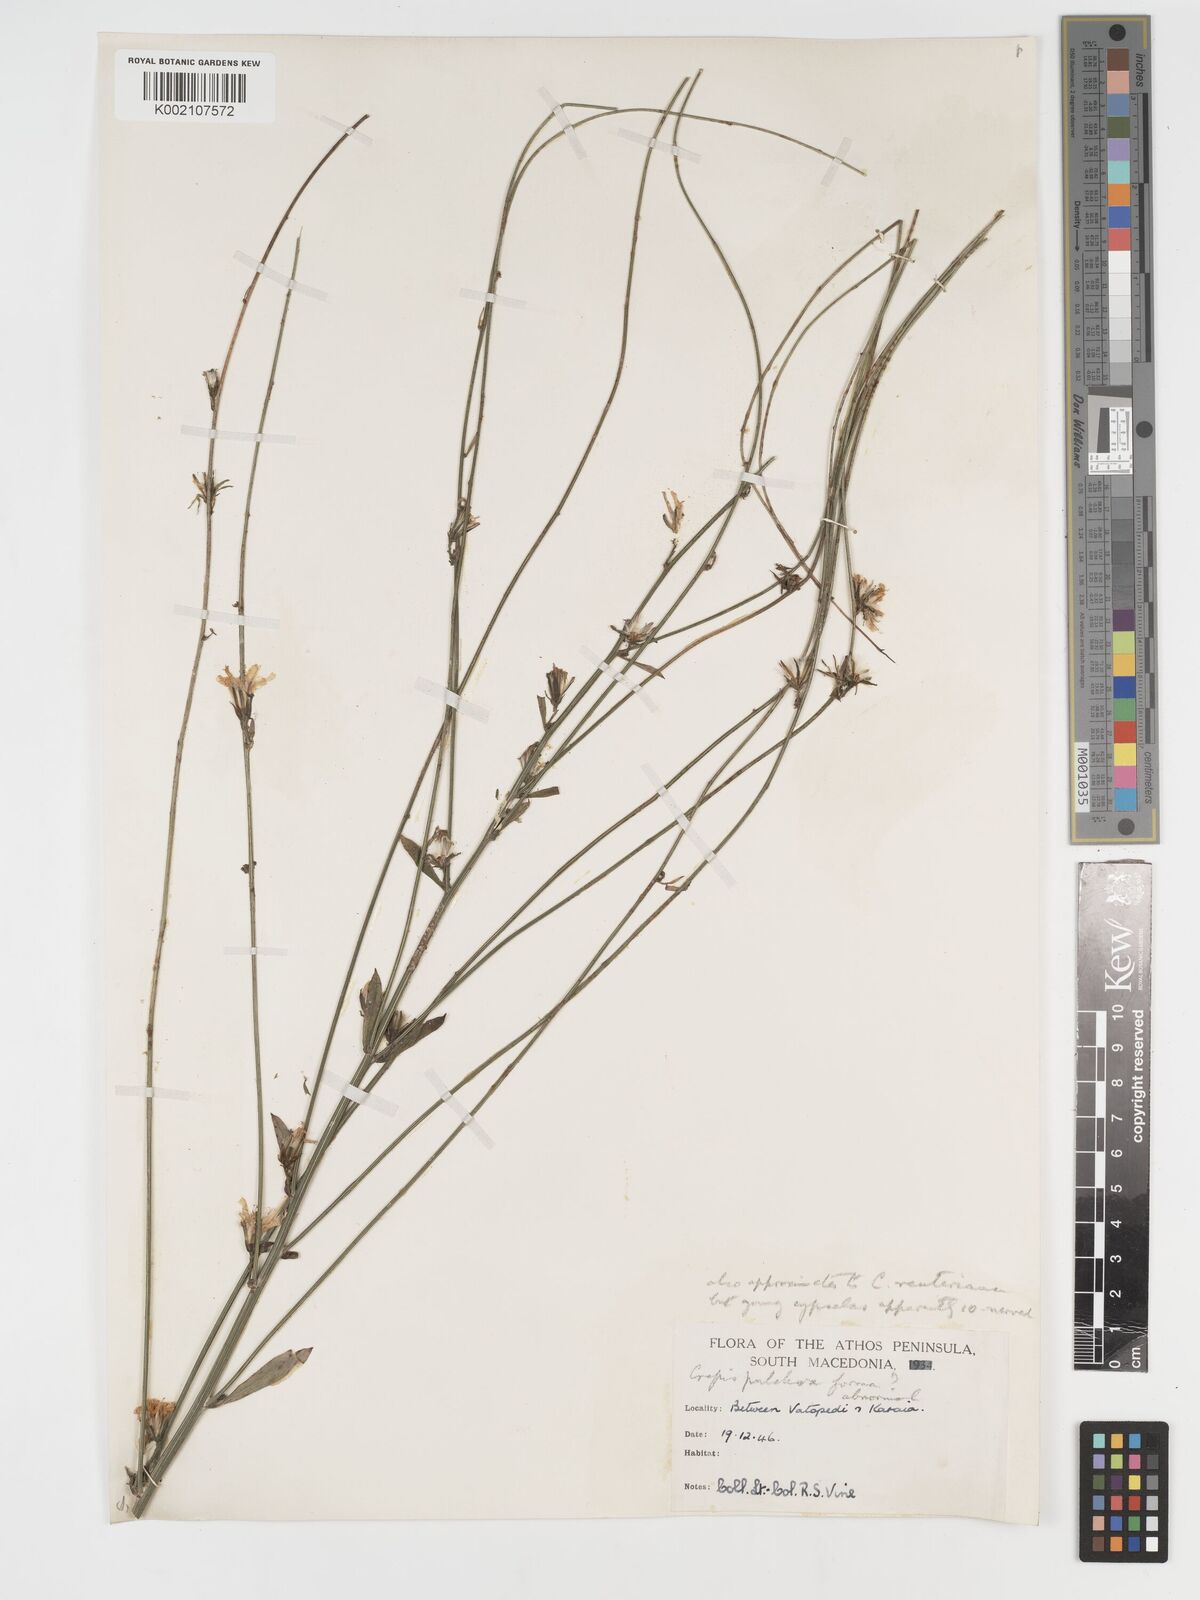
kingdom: Plantae
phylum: Tracheophyta
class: Magnoliopsida
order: Asterales
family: Asteraceae
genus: Crepis
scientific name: Crepis pulchra
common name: Hawk's-beard
